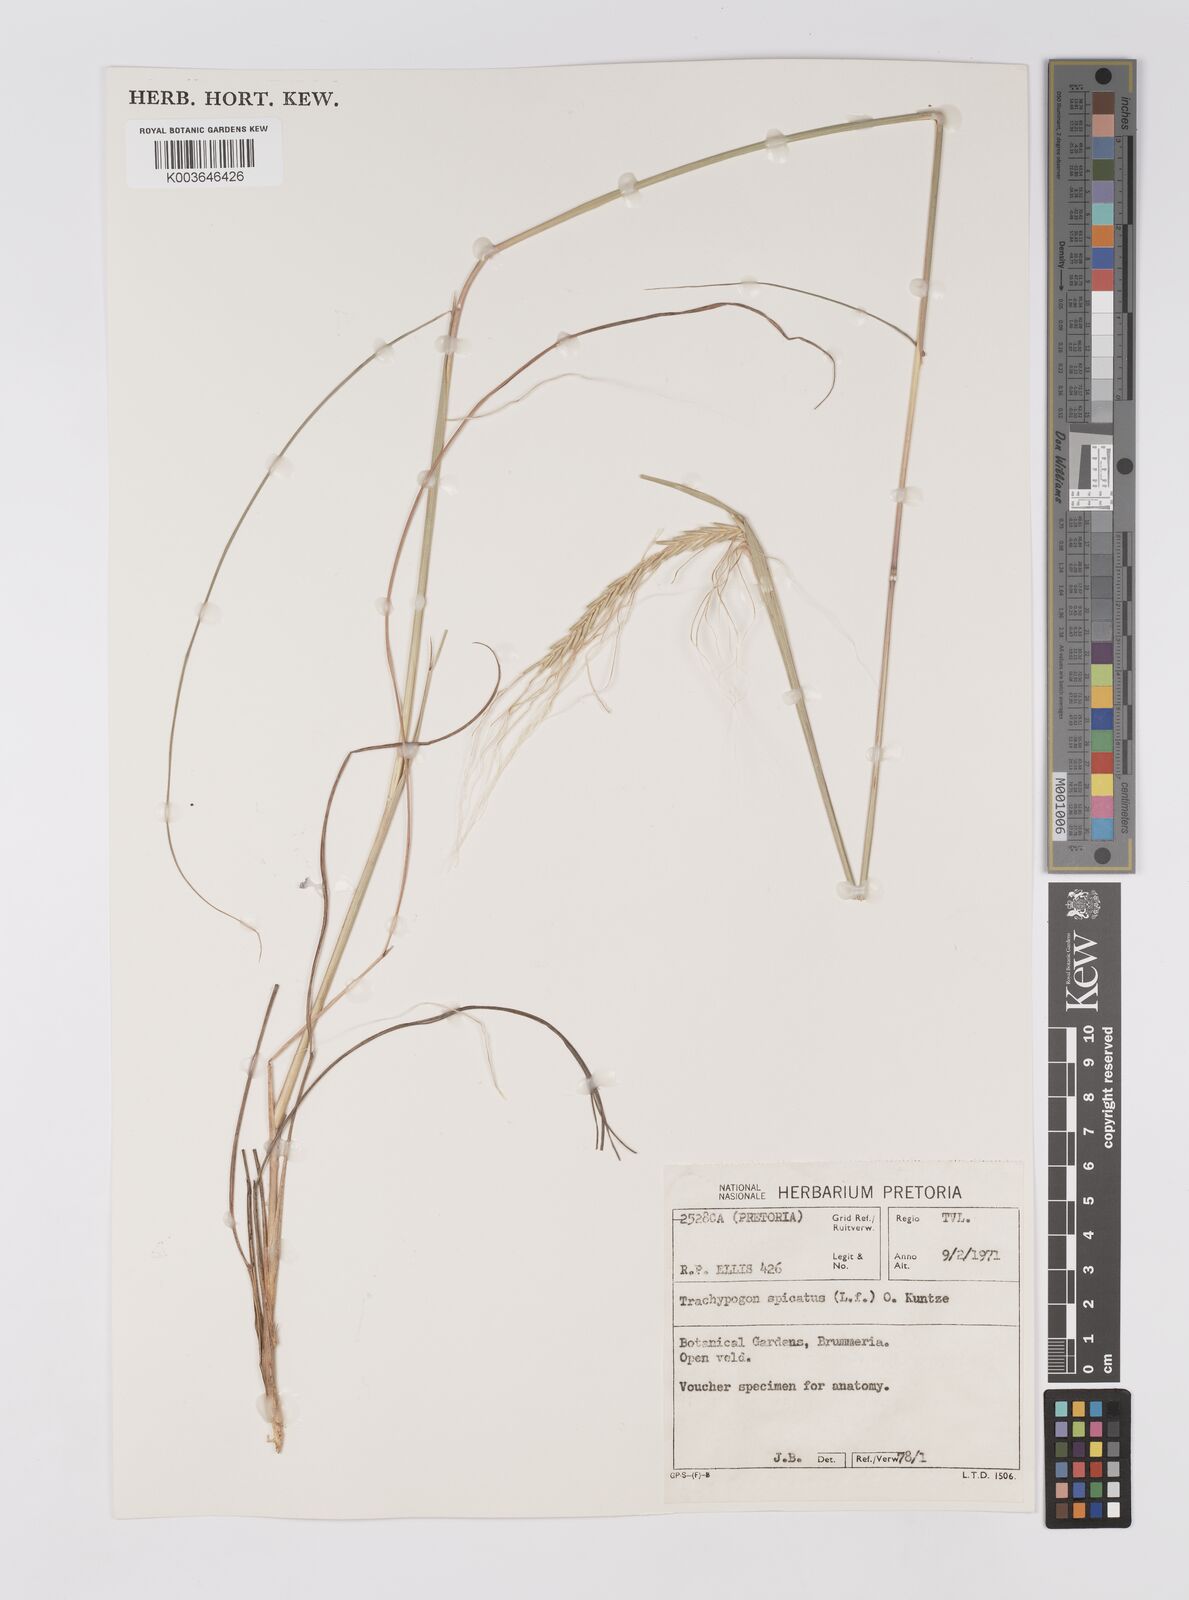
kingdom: Plantae
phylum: Tracheophyta
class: Liliopsida
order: Poales
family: Poaceae
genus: Trachypogon
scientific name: Trachypogon spicatus
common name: Crinkle-awn
